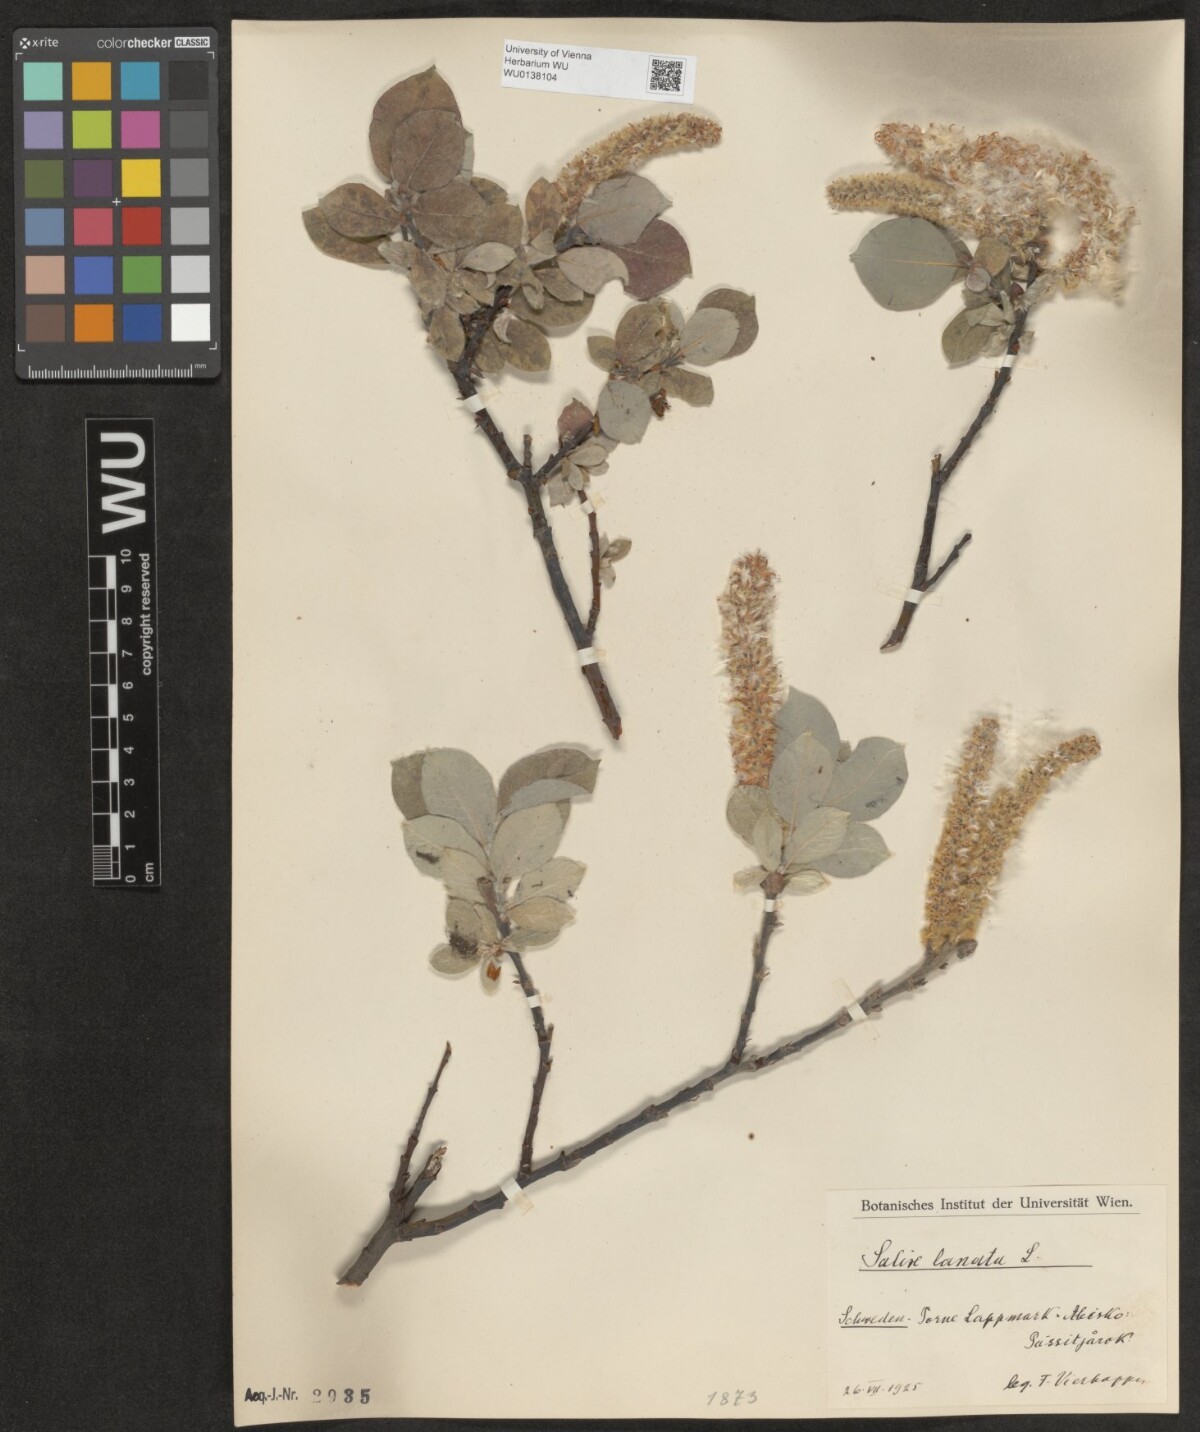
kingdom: Plantae
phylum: Tracheophyta
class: Magnoliopsida
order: Malpighiales
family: Salicaceae
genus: Salix
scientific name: Salix lanata
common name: Woolly willow
